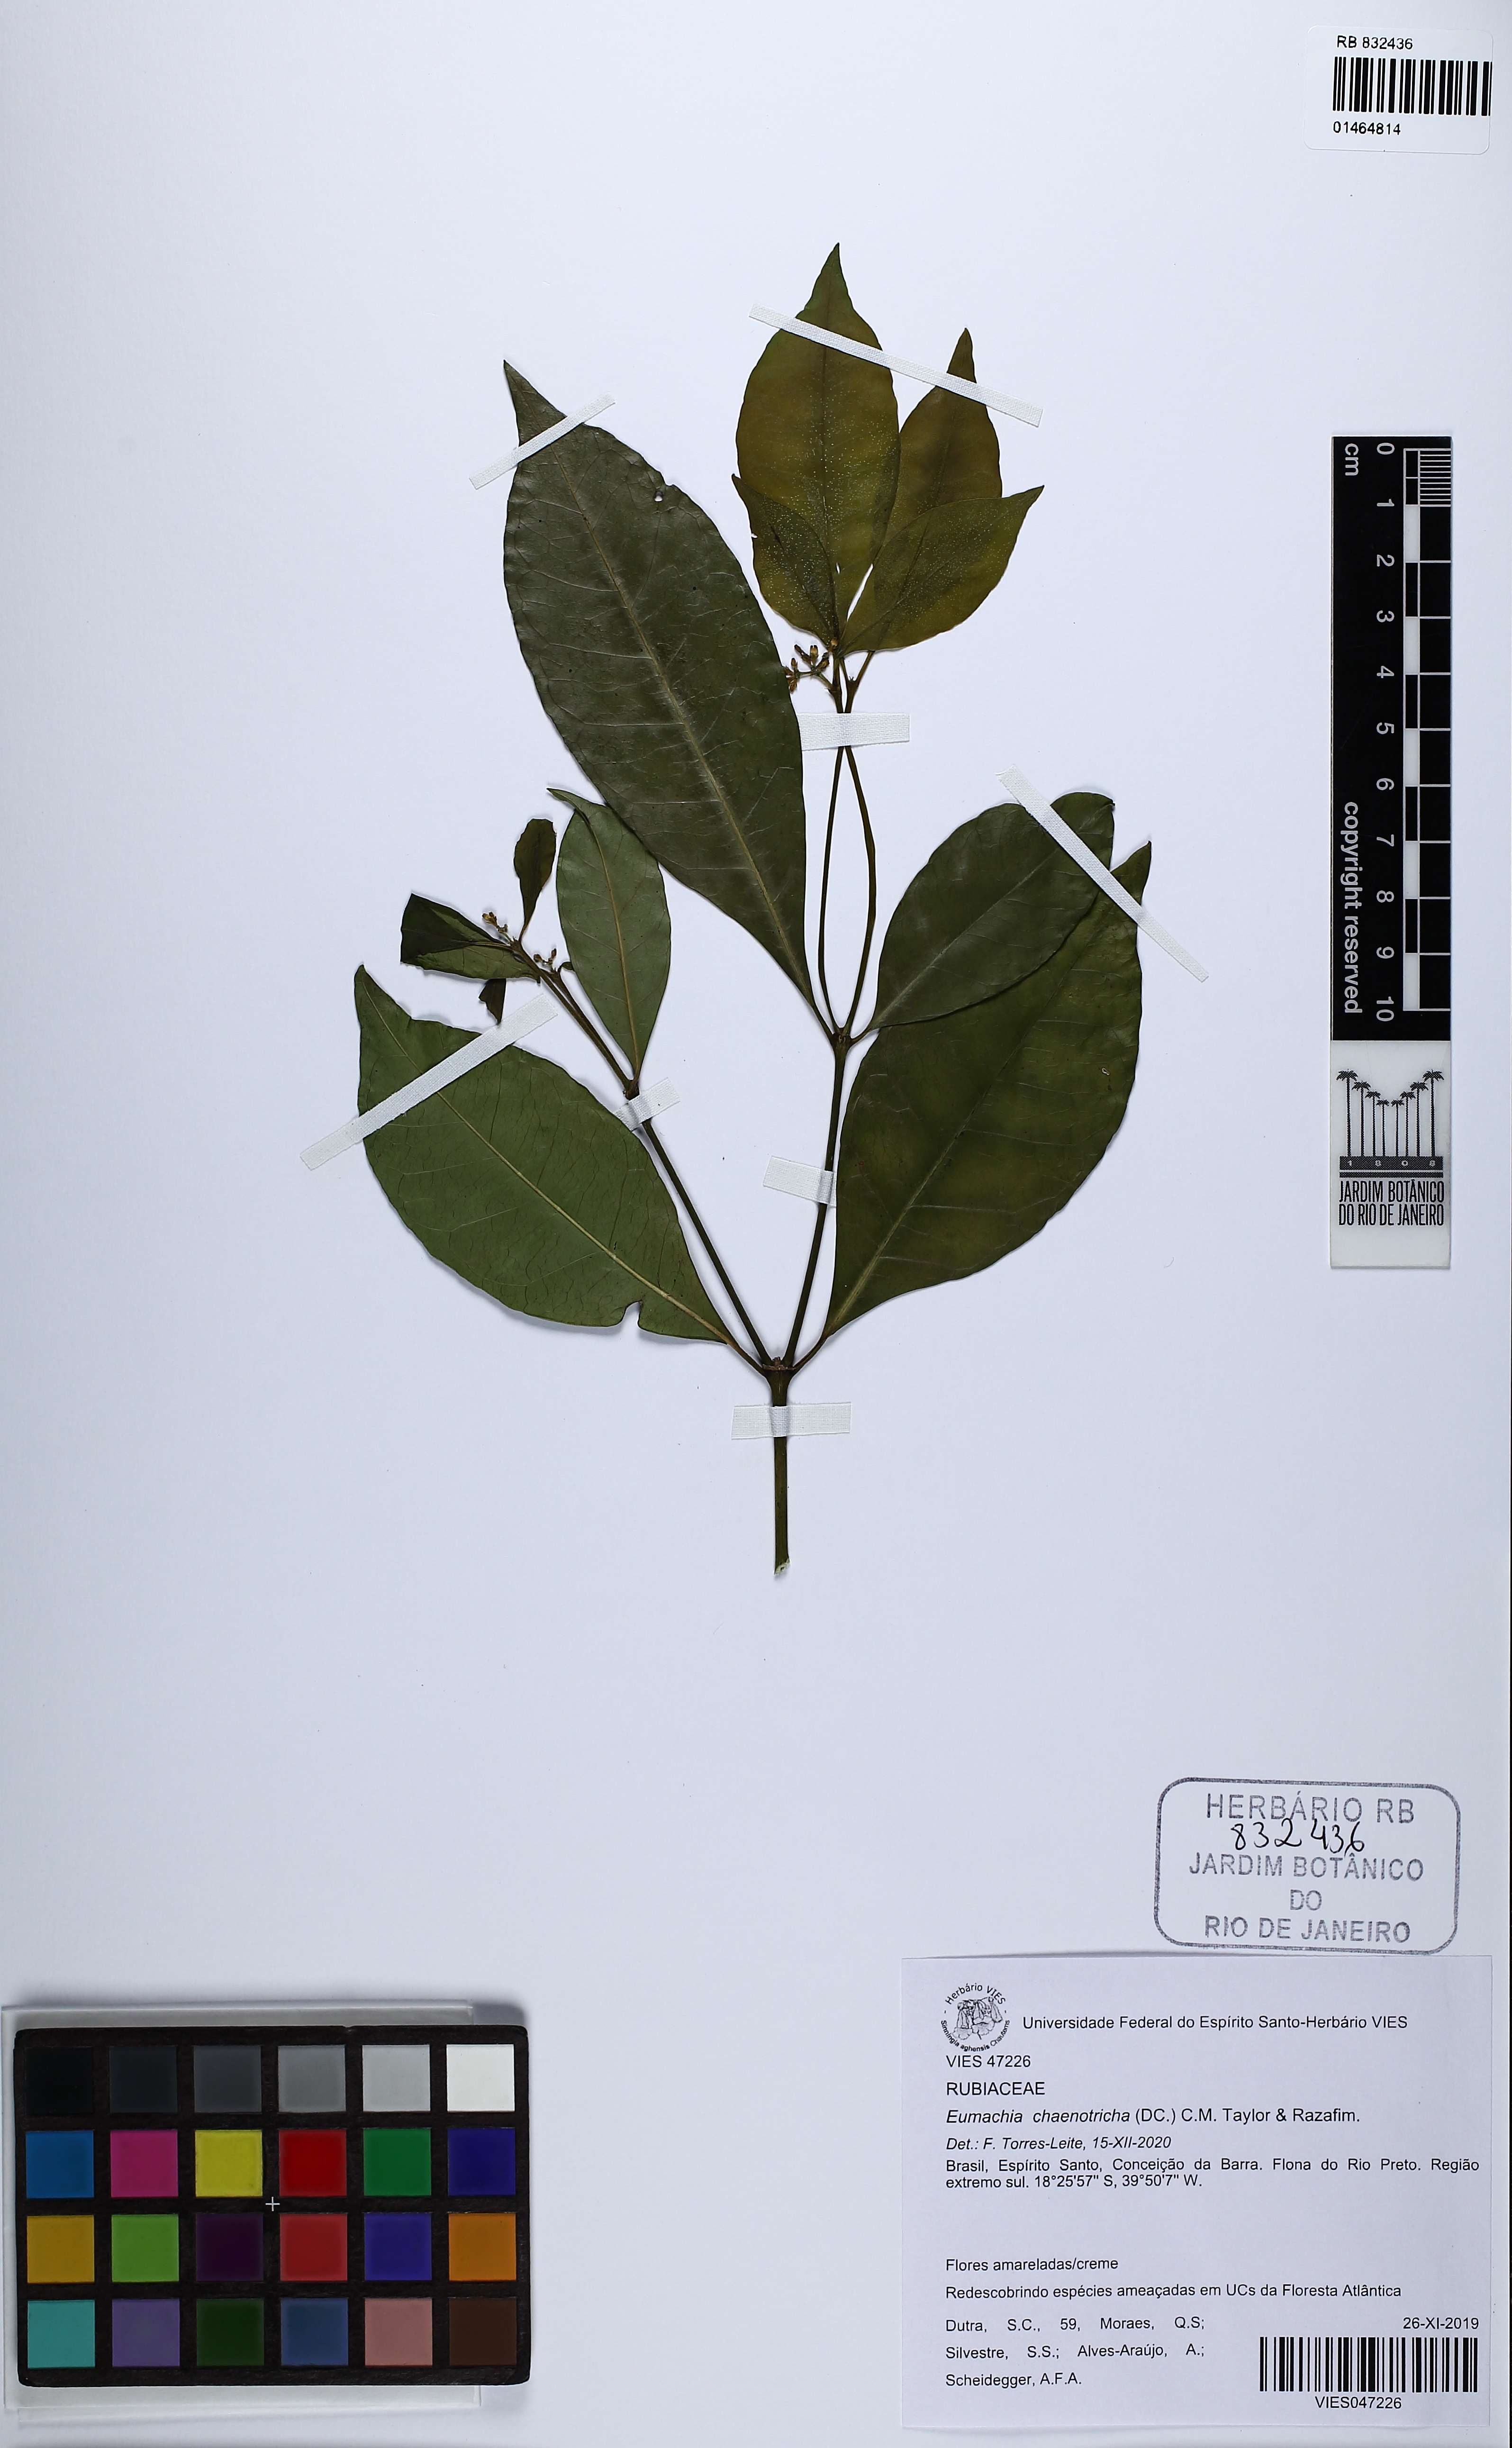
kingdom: Plantae
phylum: Tracheophyta
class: Magnoliopsida
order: Gentianales
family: Rubiaceae
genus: Eumachia
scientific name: Eumachia chaenotricha
